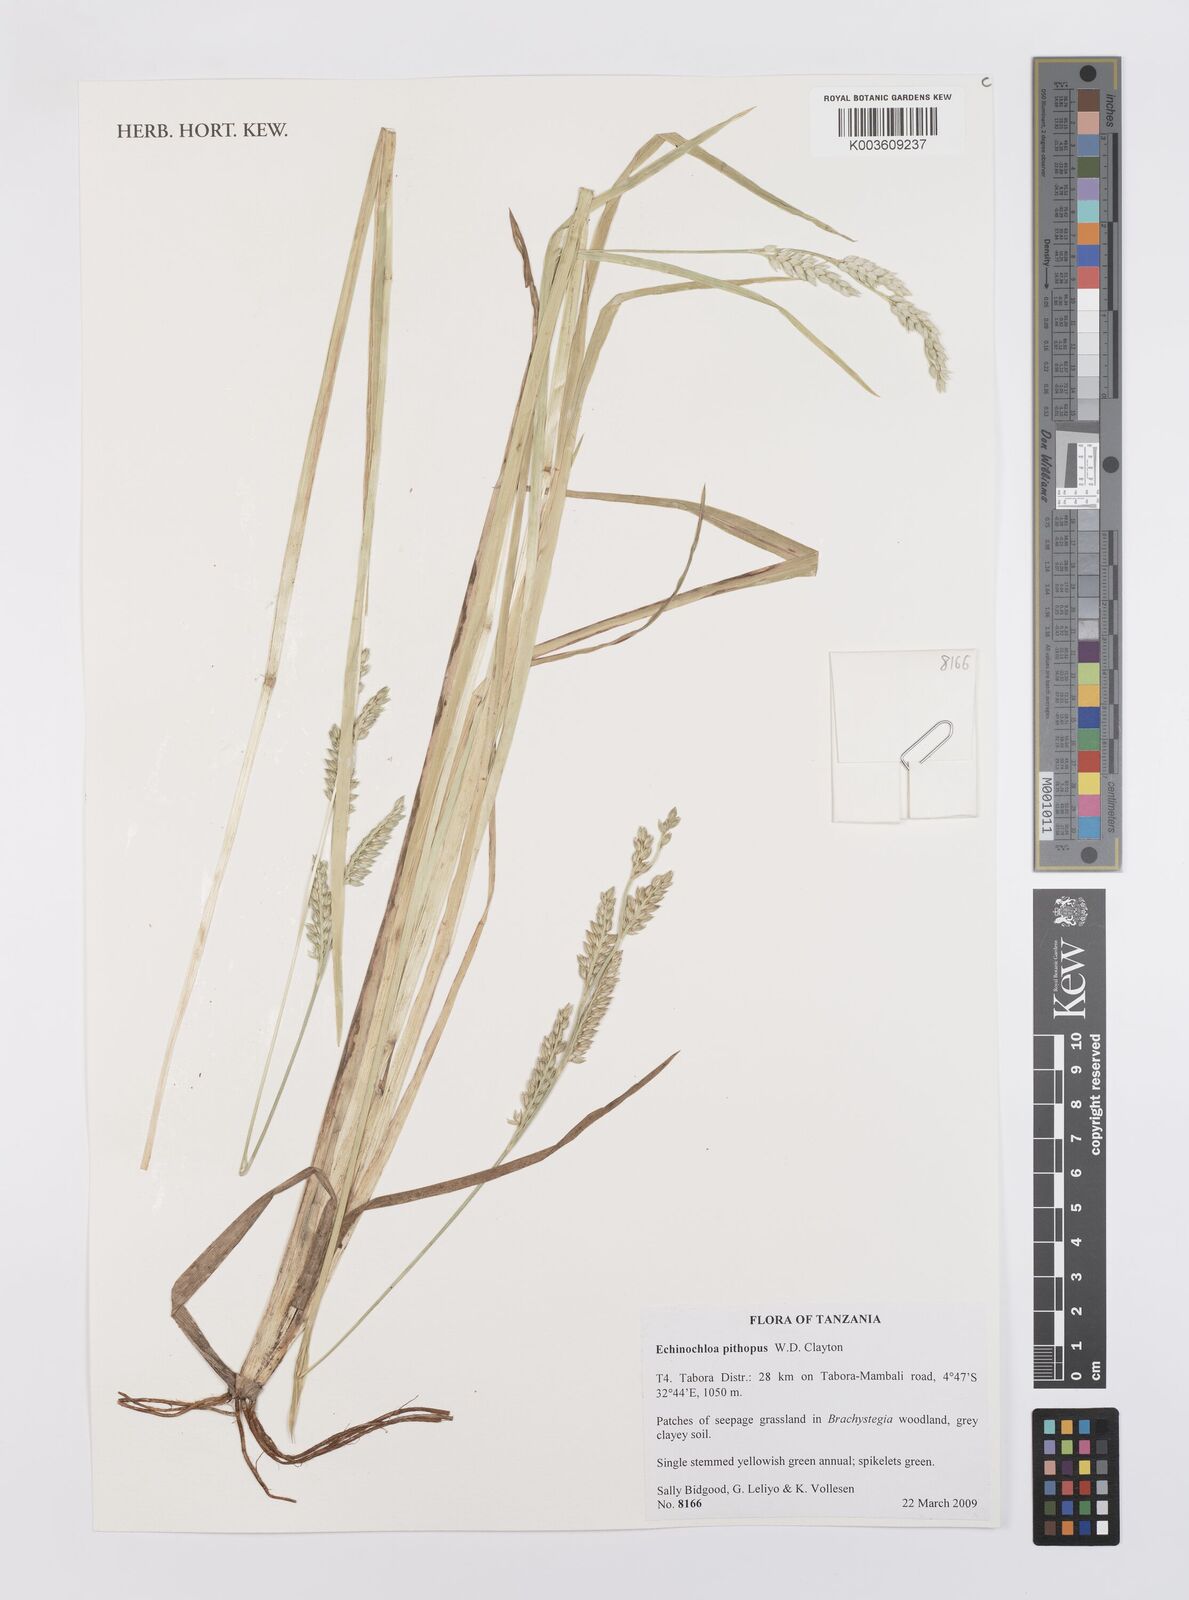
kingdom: Plantae
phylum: Tracheophyta
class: Liliopsida
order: Poales
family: Poaceae
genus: Echinochloa
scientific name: Echinochloa pithopus
